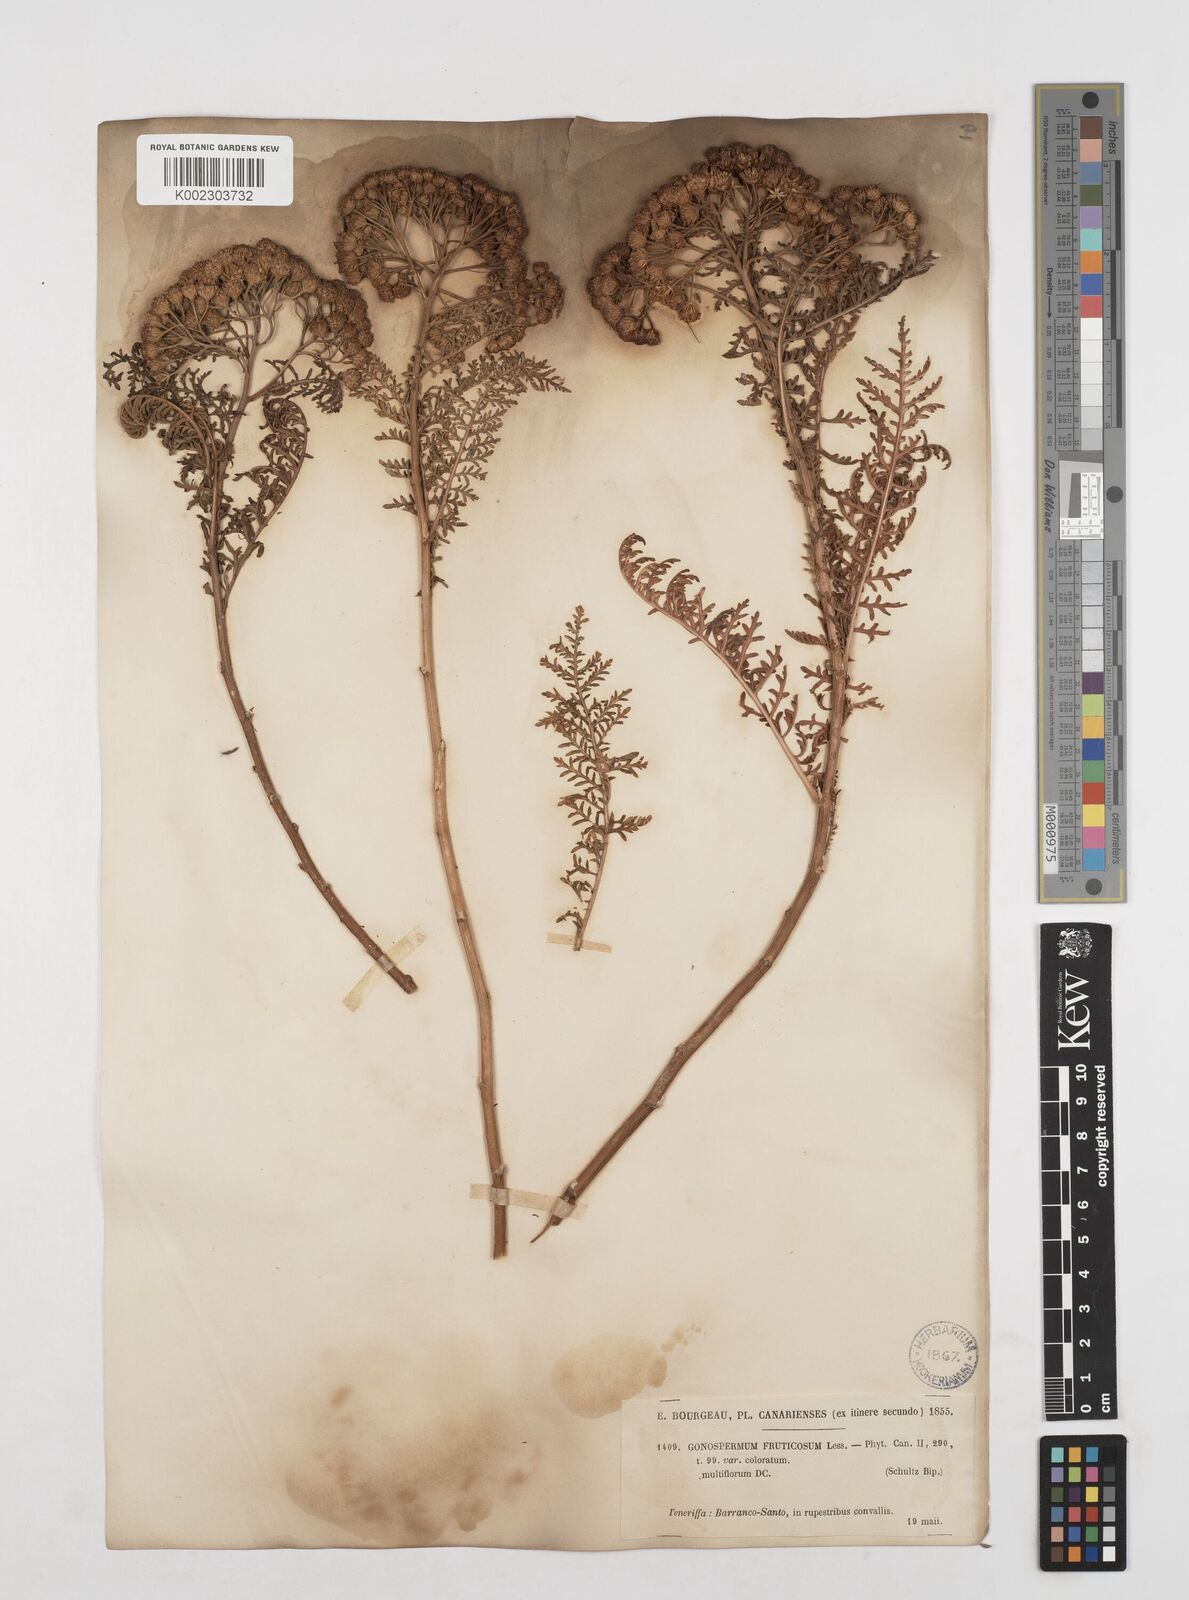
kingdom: Plantae
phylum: Tracheophyta
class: Magnoliopsida
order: Asterales
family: Asteraceae
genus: Gonospermum
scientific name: Gonospermum fruticosum
